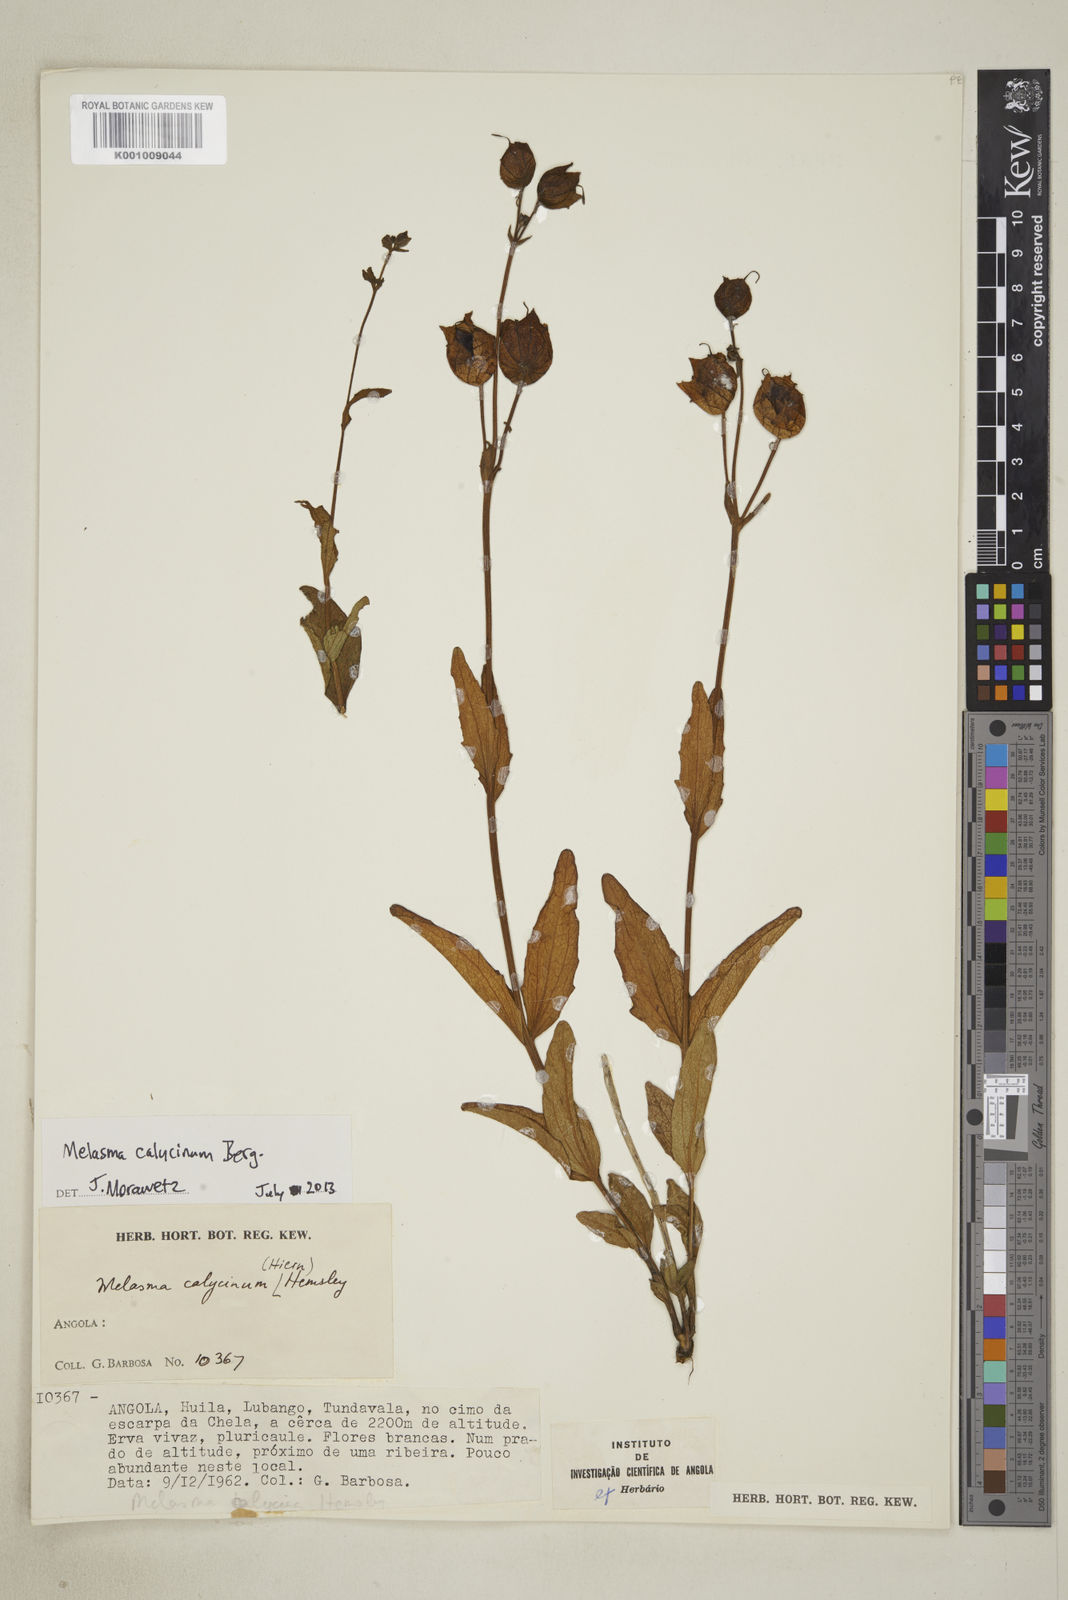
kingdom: Plantae
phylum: Tracheophyta
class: Magnoliopsida
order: Lamiales
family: Orobanchaceae
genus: Melasma
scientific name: Melasma
